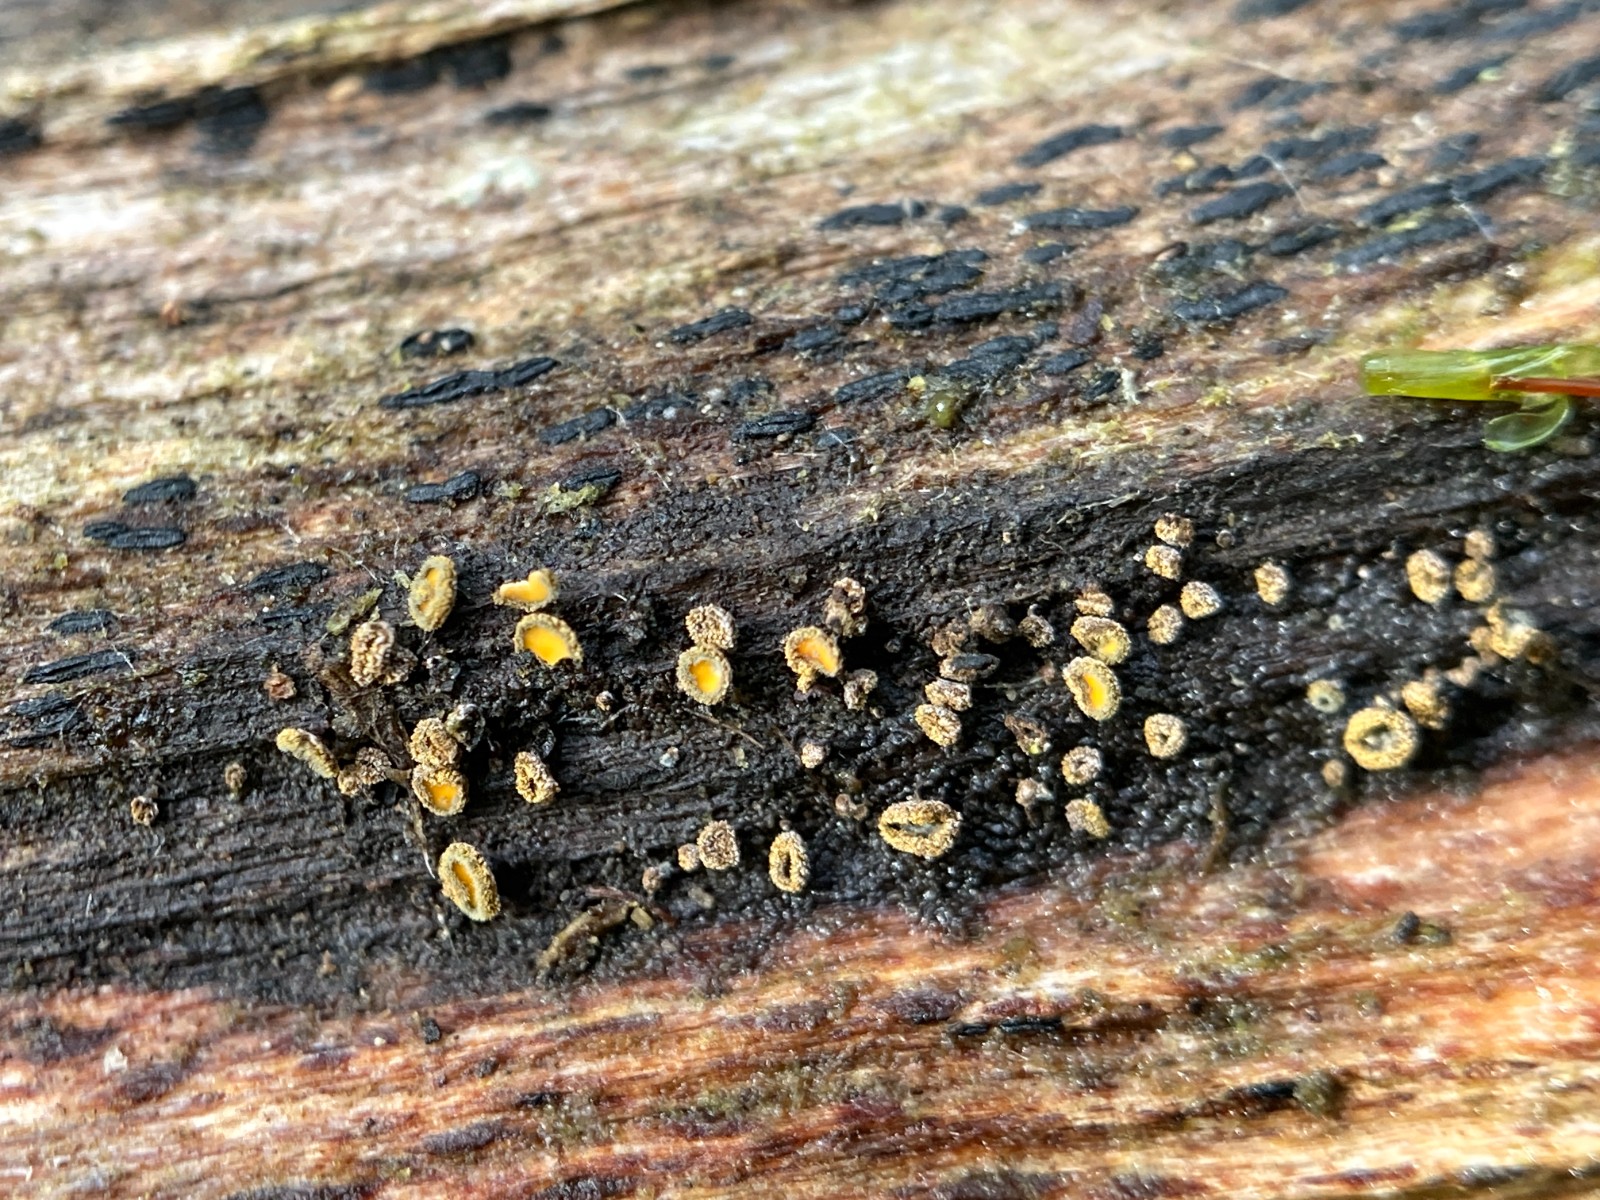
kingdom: Fungi
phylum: Ascomycota
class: Leotiomycetes
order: Helotiales
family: Lachnaceae
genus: Neodasyscypha
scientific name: Neodasyscypha cerina
